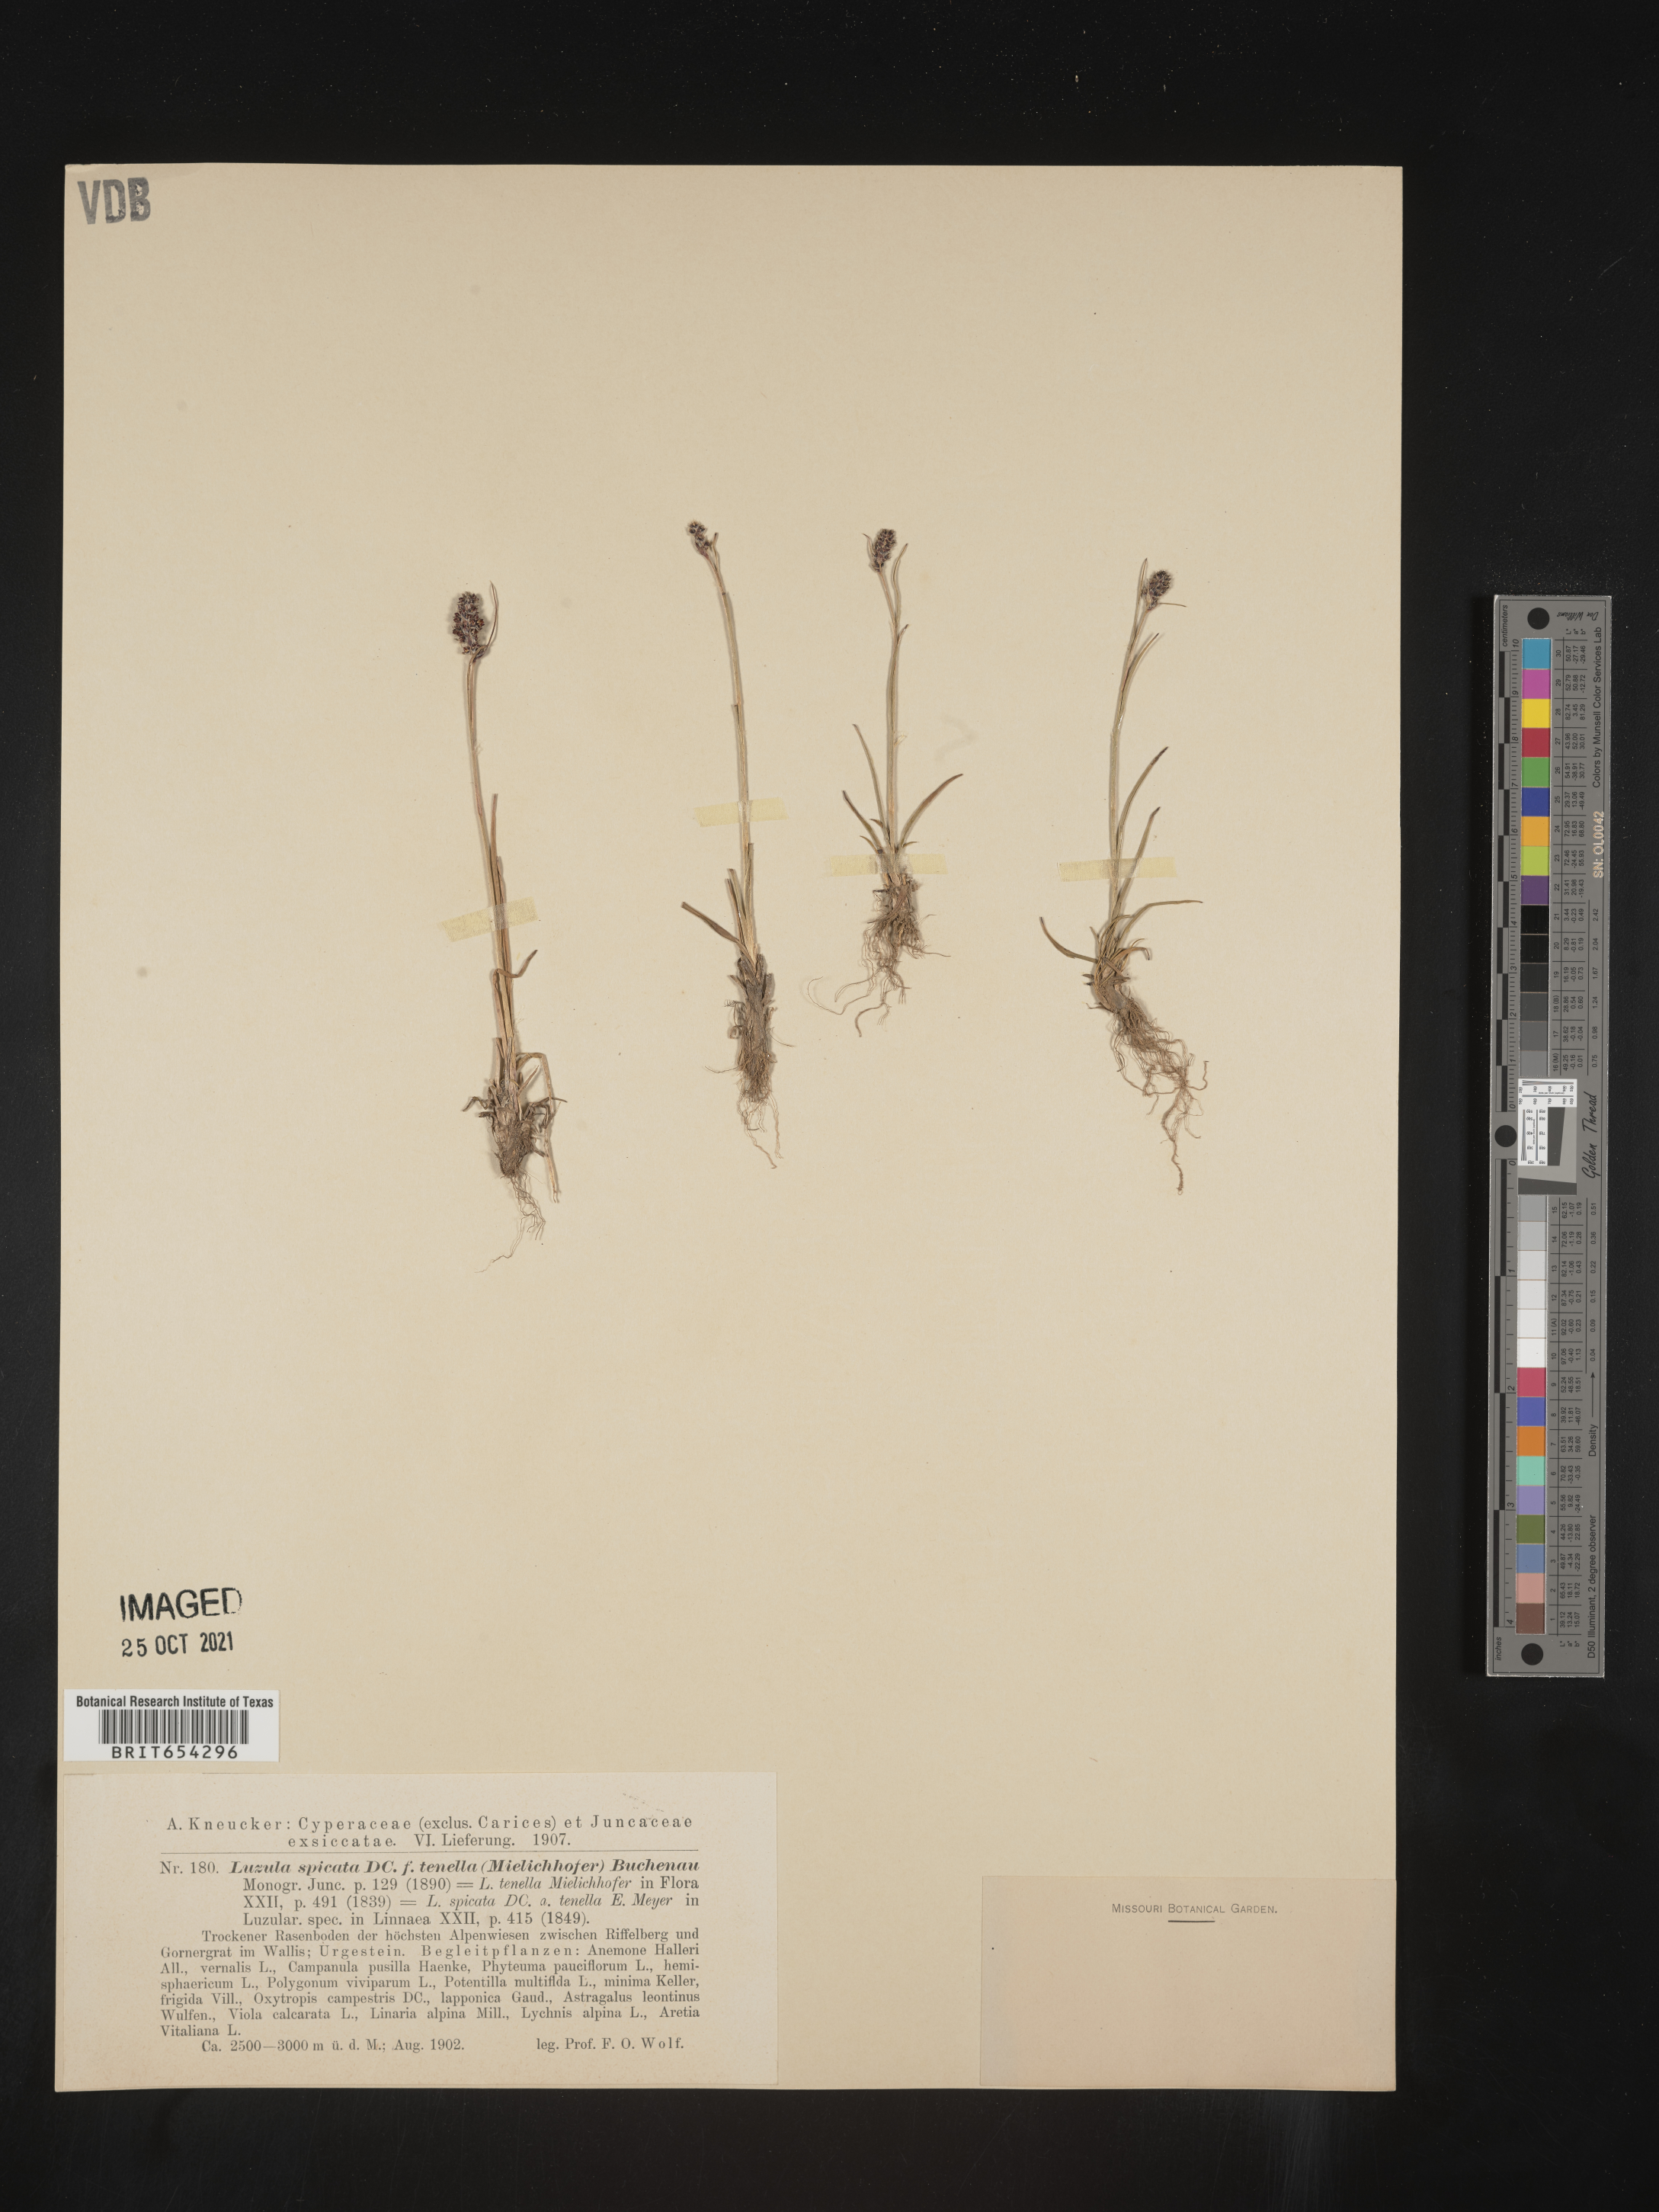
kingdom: Plantae
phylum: Tracheophyta
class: Liliopsida
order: Poales
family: Juncaceae
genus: Luzula
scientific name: Luzula
